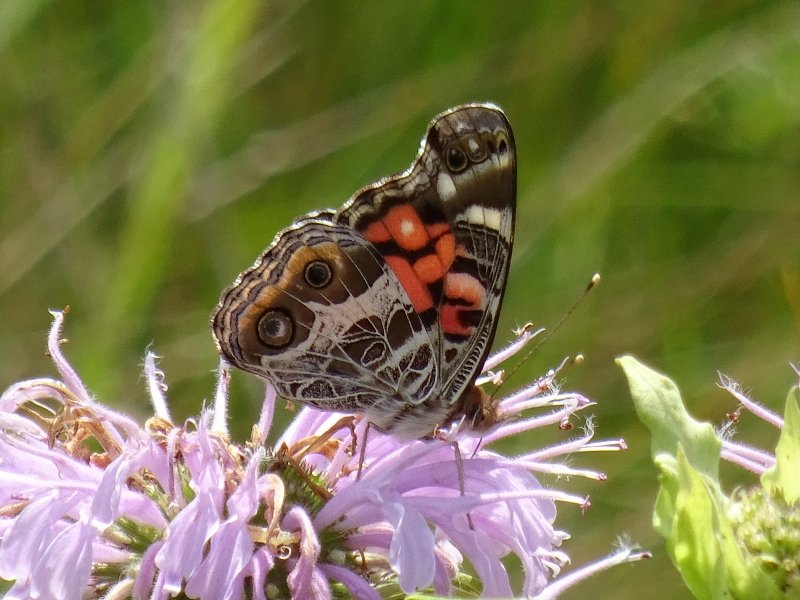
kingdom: Animalia
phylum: Arthropoda
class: Insecta
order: Lepidoptera
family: Nymphalidae
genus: Vanessa
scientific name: Vanessa virginiensis
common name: American Lady
